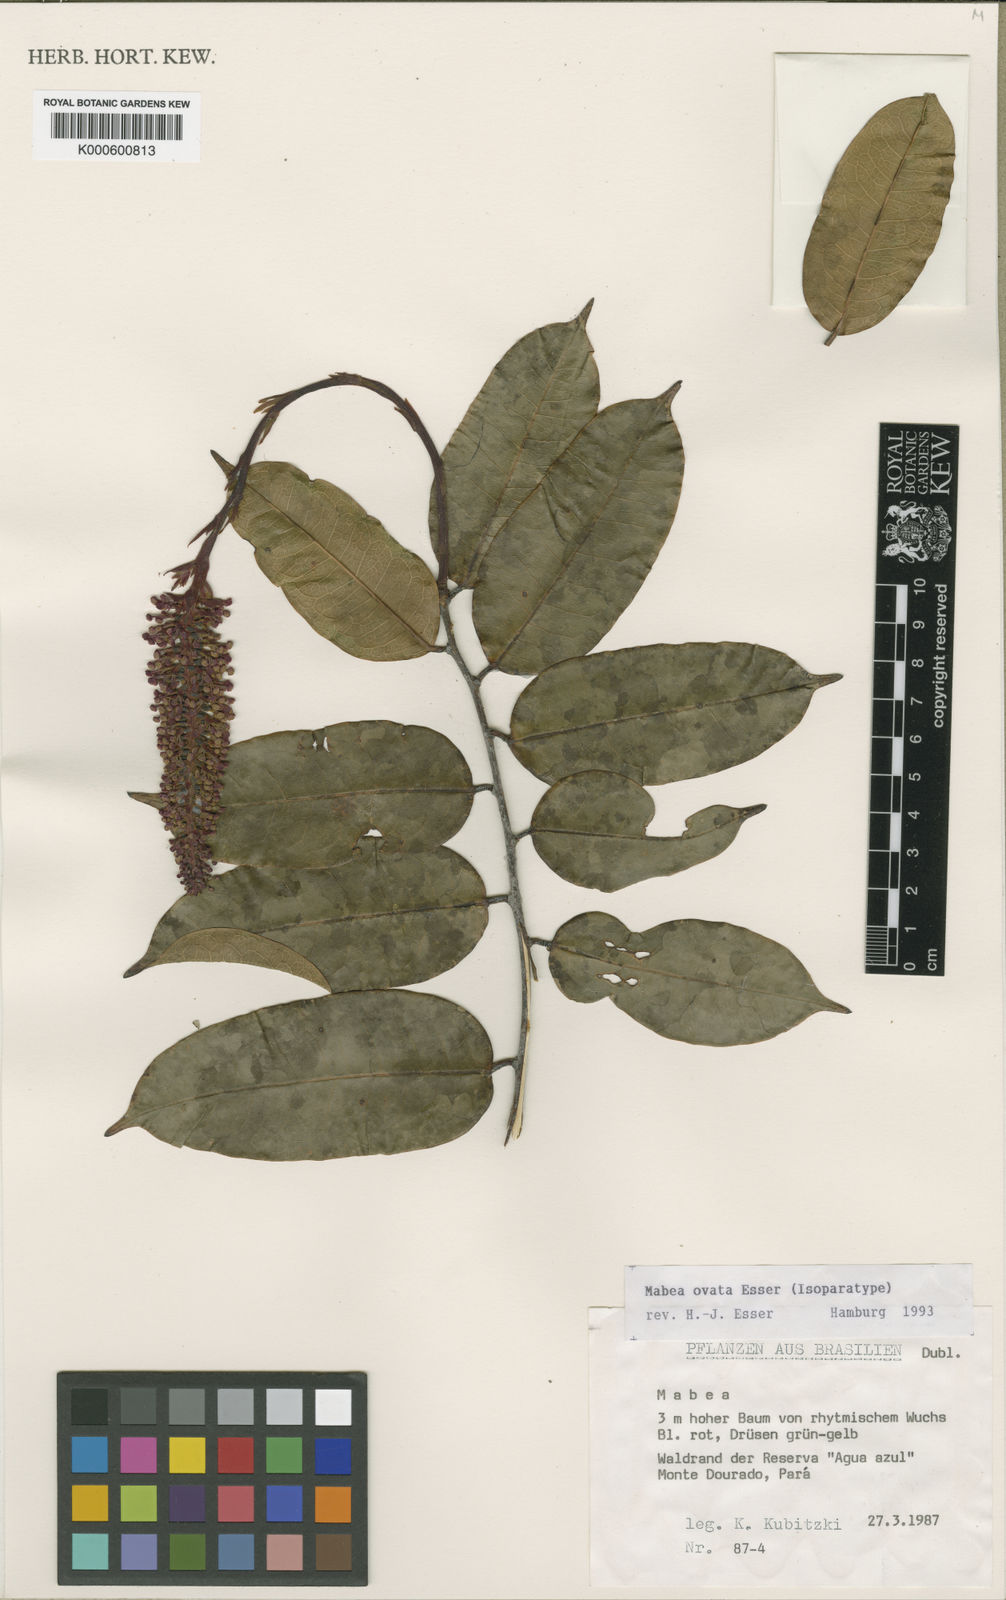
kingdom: Plantae
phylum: Tracheophyta
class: Magnoliopsida
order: Malpighiales
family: Euphorbiaceae
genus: Mabea
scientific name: Mabea ovata
